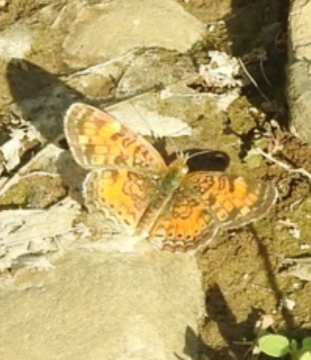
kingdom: Animalia
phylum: Arthropoda
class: Insecta
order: Lepidoptera
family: Nymphalidae
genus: Phyciodes
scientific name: Phyciodes tharos
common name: Pearl Crescent
